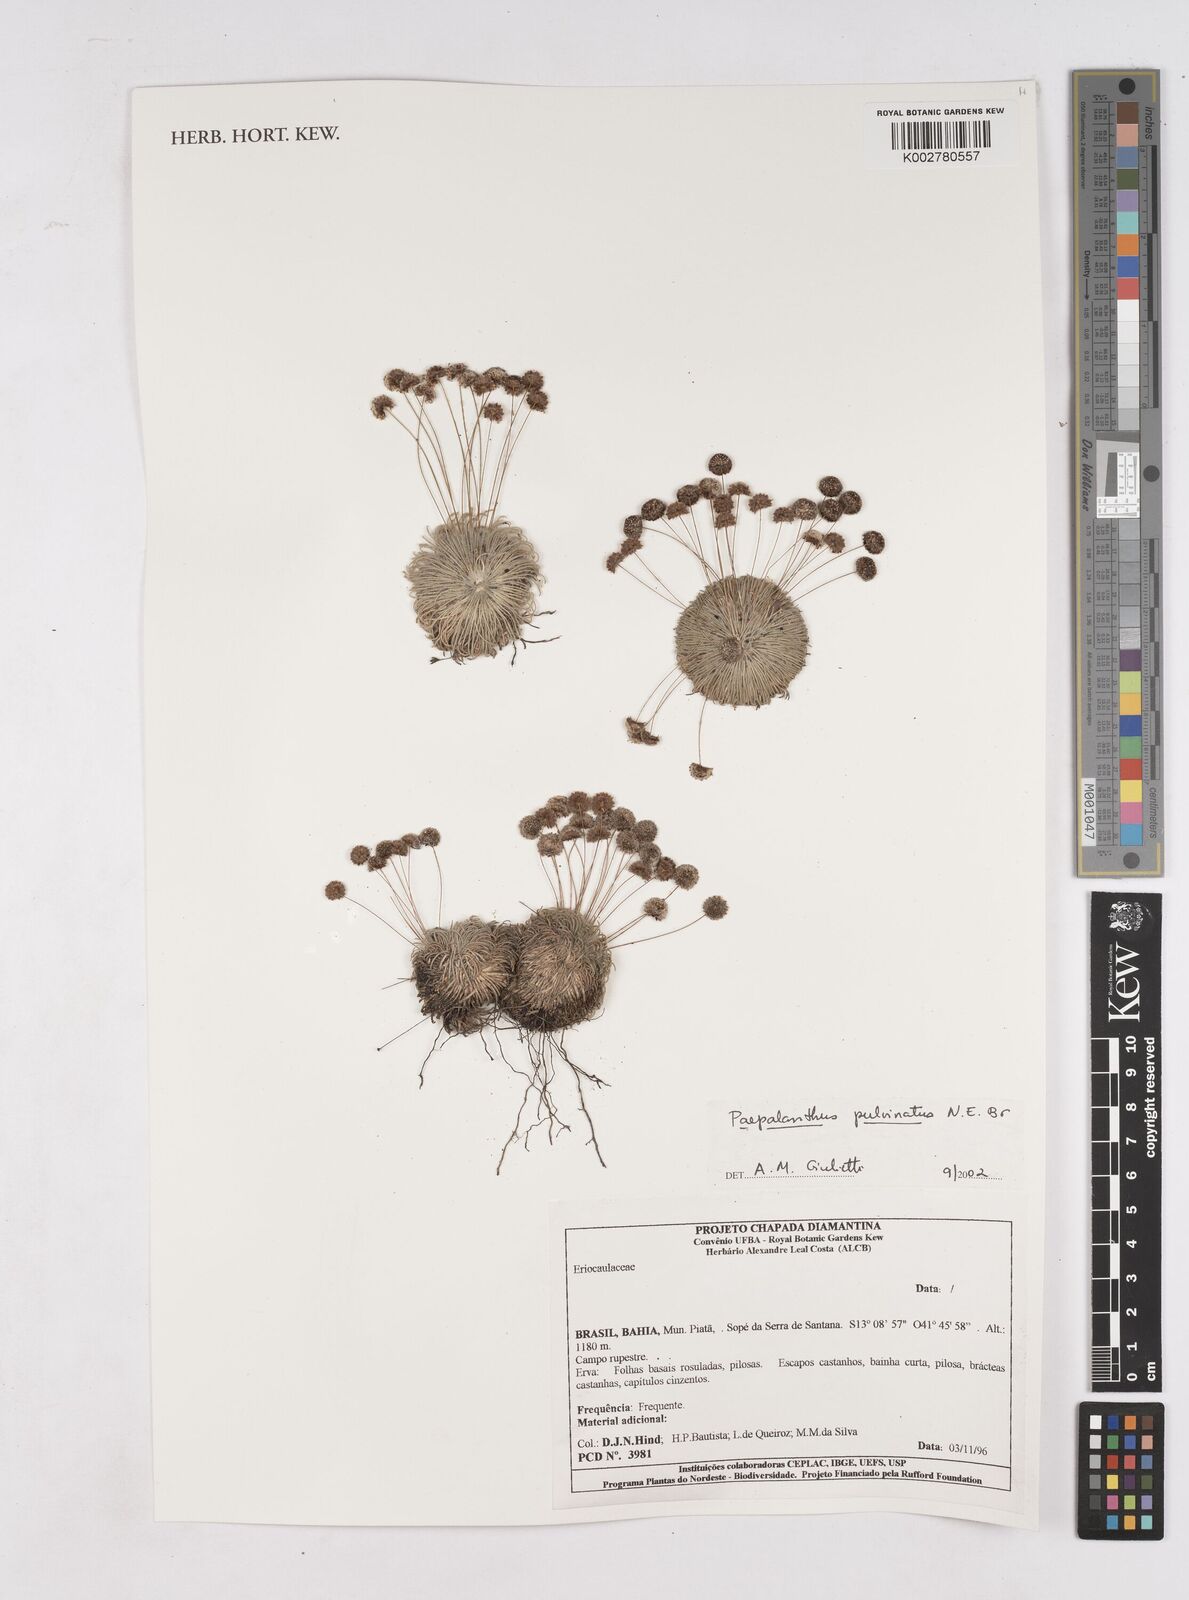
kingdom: Plantae
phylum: Tracheophyta
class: Liliopsida
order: Poales
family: Eriocaulaceae
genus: Paepalanthus
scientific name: Paepalanthus pulvinatus
